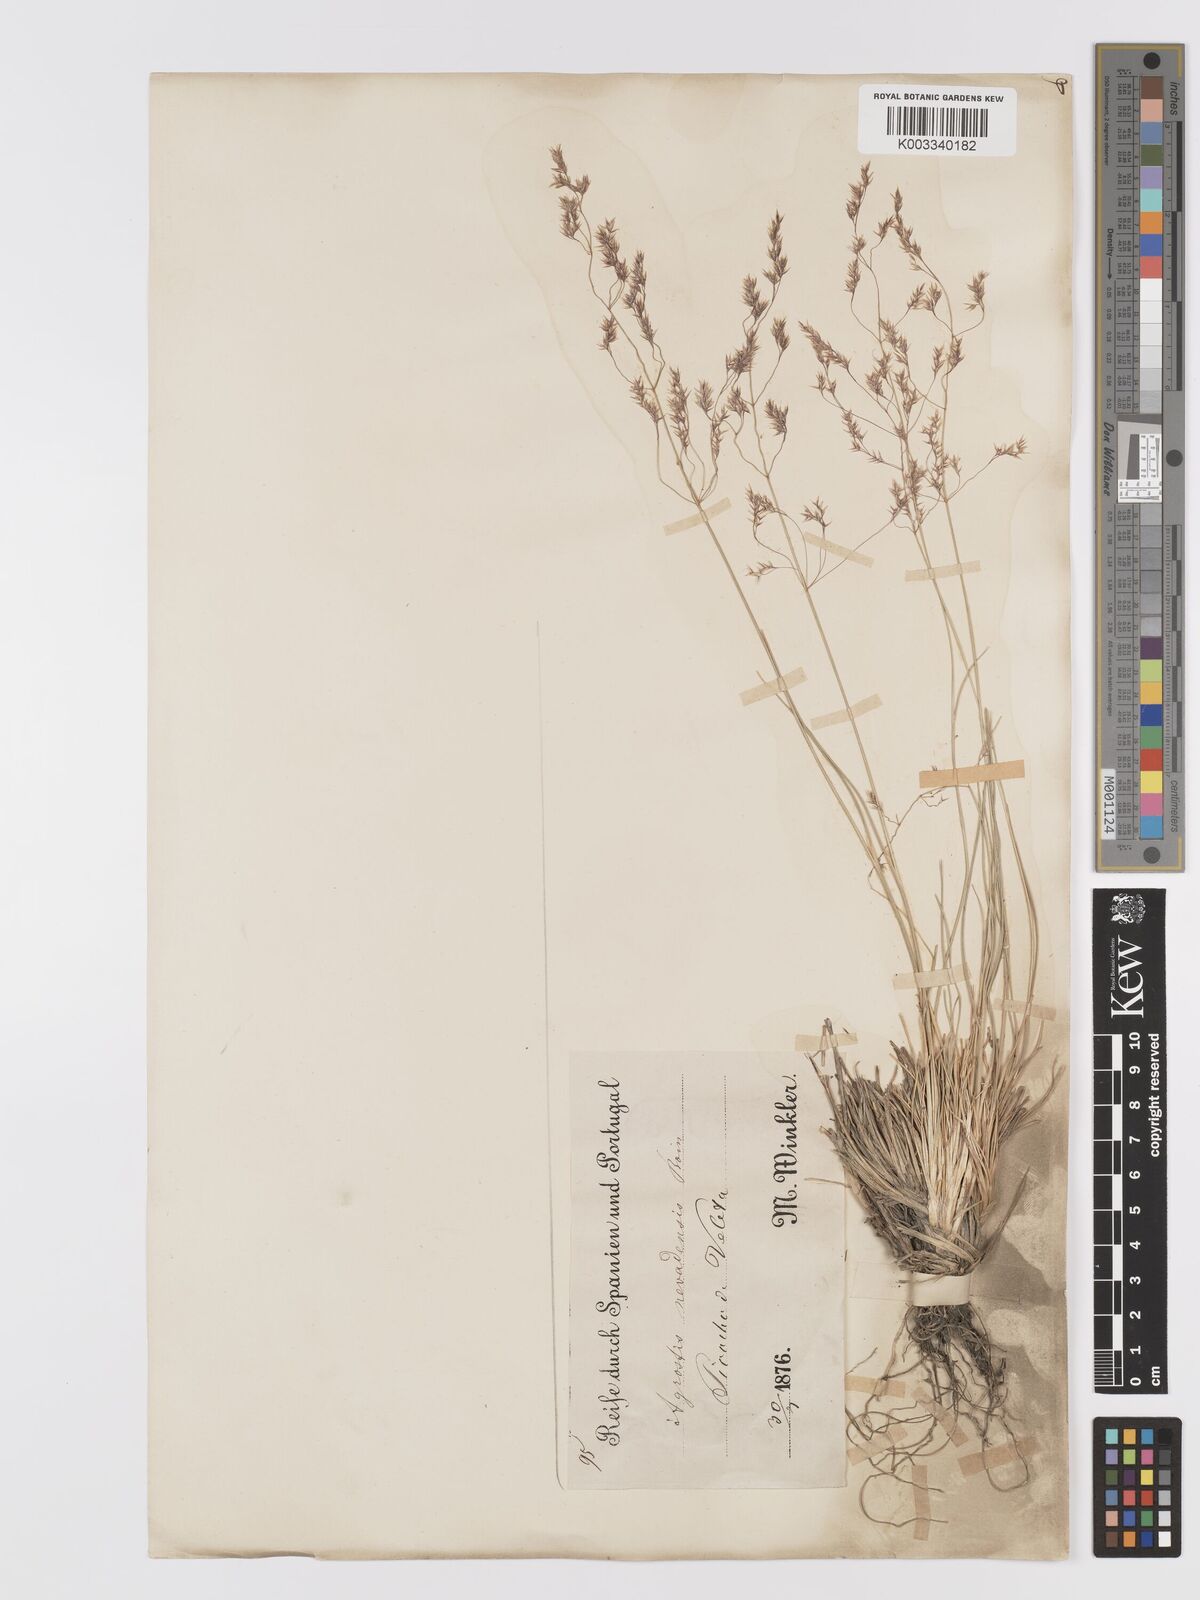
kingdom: Plantae
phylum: Tracheophyta
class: Liliopsida
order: Poales
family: Poaceae
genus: Agrostis
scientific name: Agrostis nevadensis
